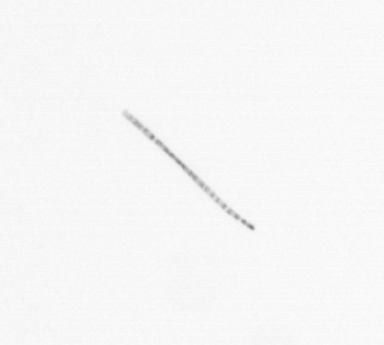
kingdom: Chromista
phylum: Ochrophyta
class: Bacillariophyceae
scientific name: Bacillariophyceae
